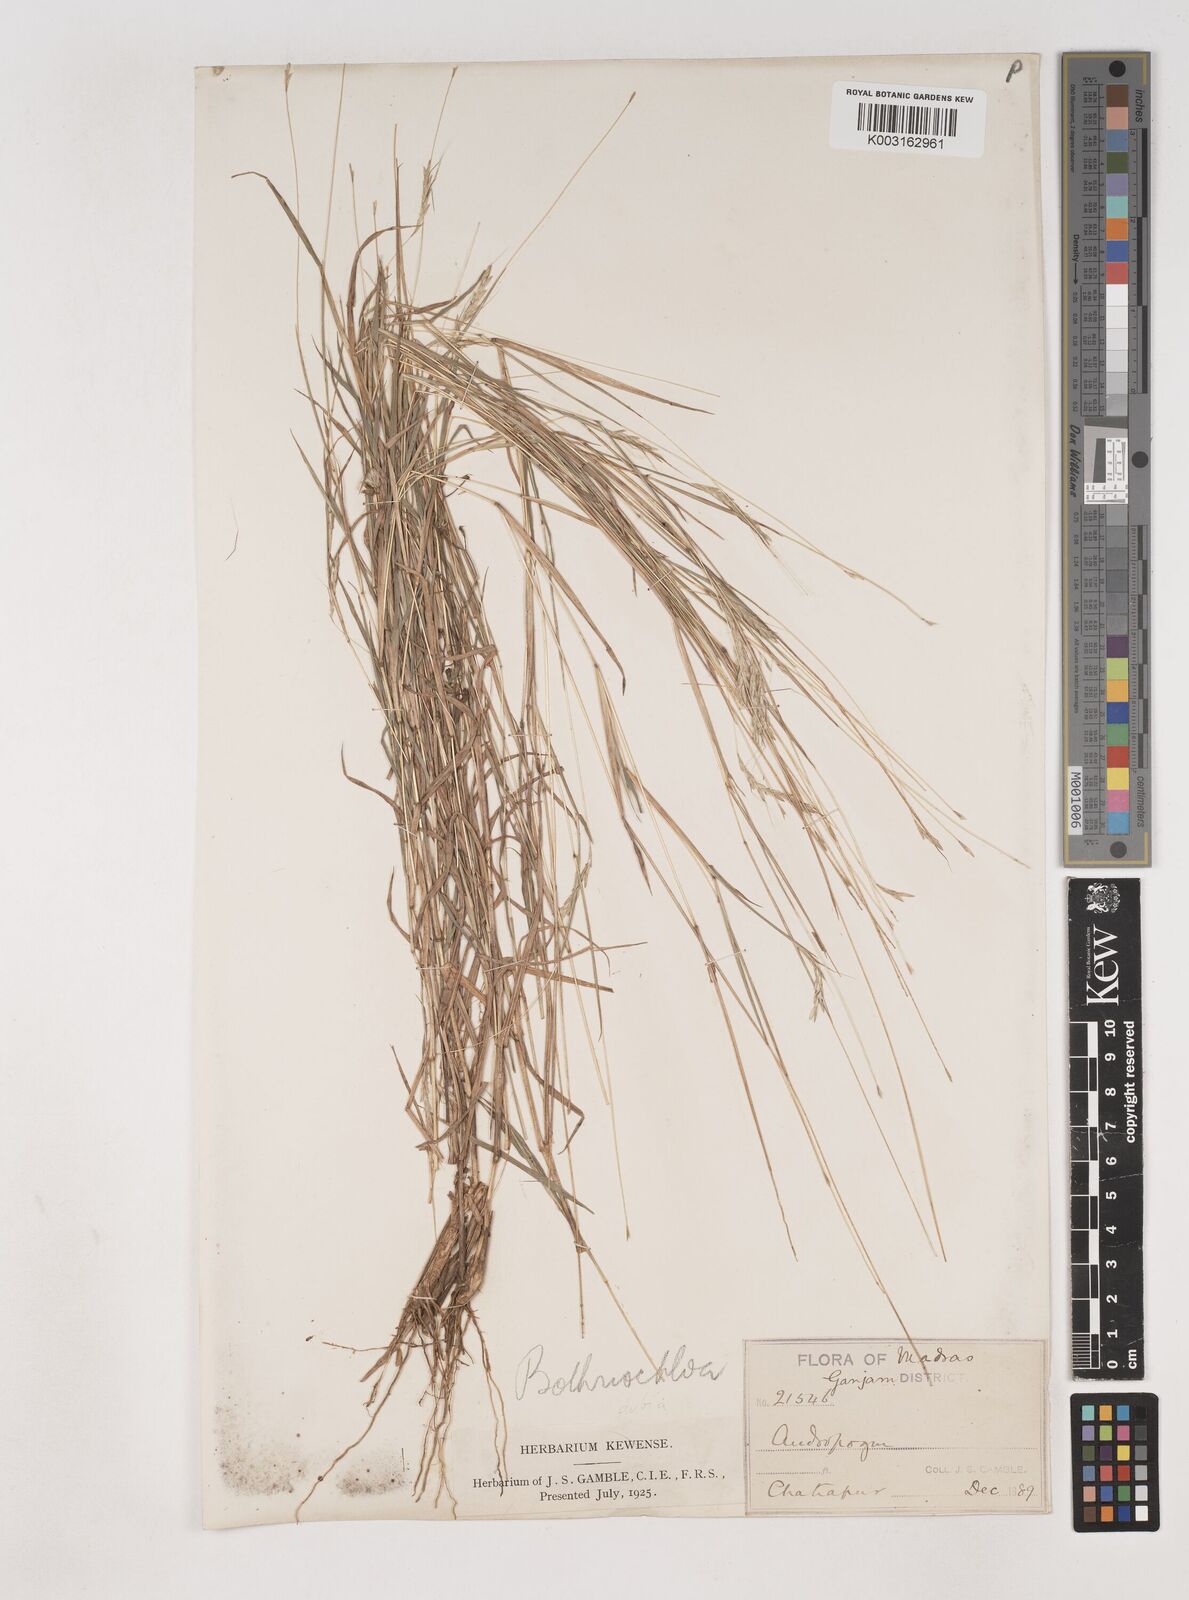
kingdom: Plantae
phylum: Tracheophyta
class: Liliopsida
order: Poales
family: Poaceae
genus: Dichanthium
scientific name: Dichanthium
